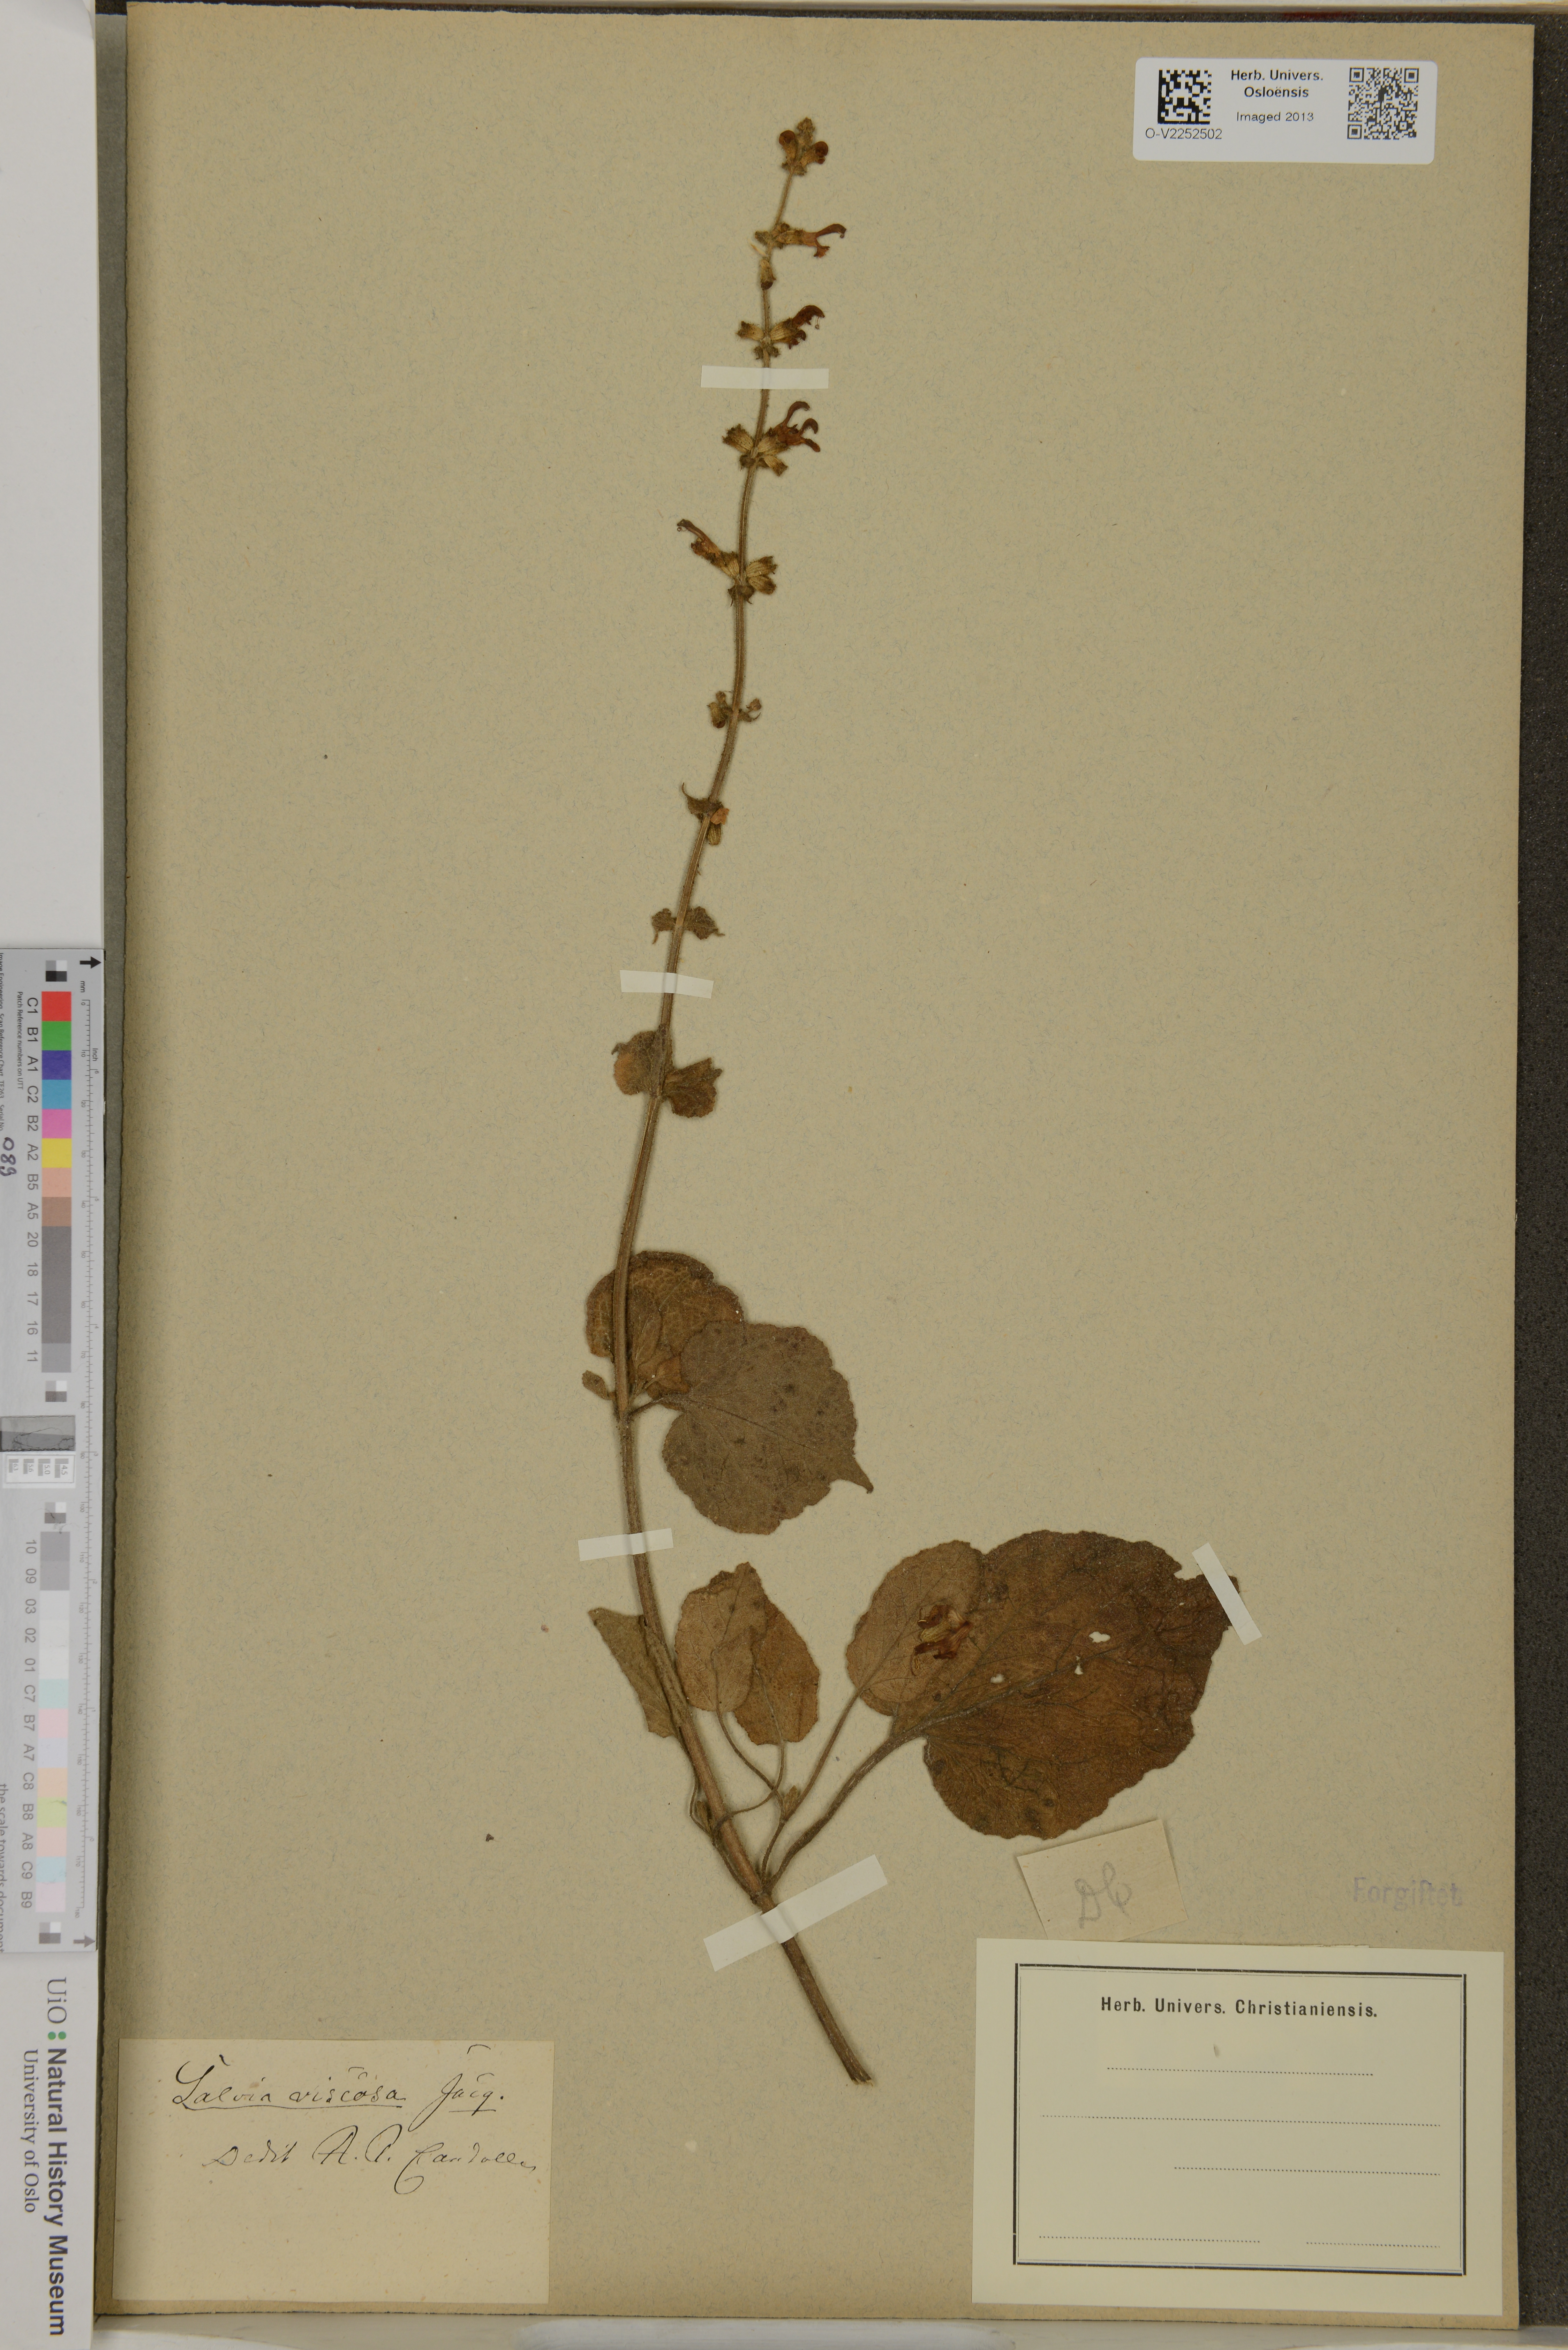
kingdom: Plantae
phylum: Tracheophyta
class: Magnoliopsida
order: Lamiales
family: Lamiaceae
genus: Salvia
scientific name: Salvia viscosa
